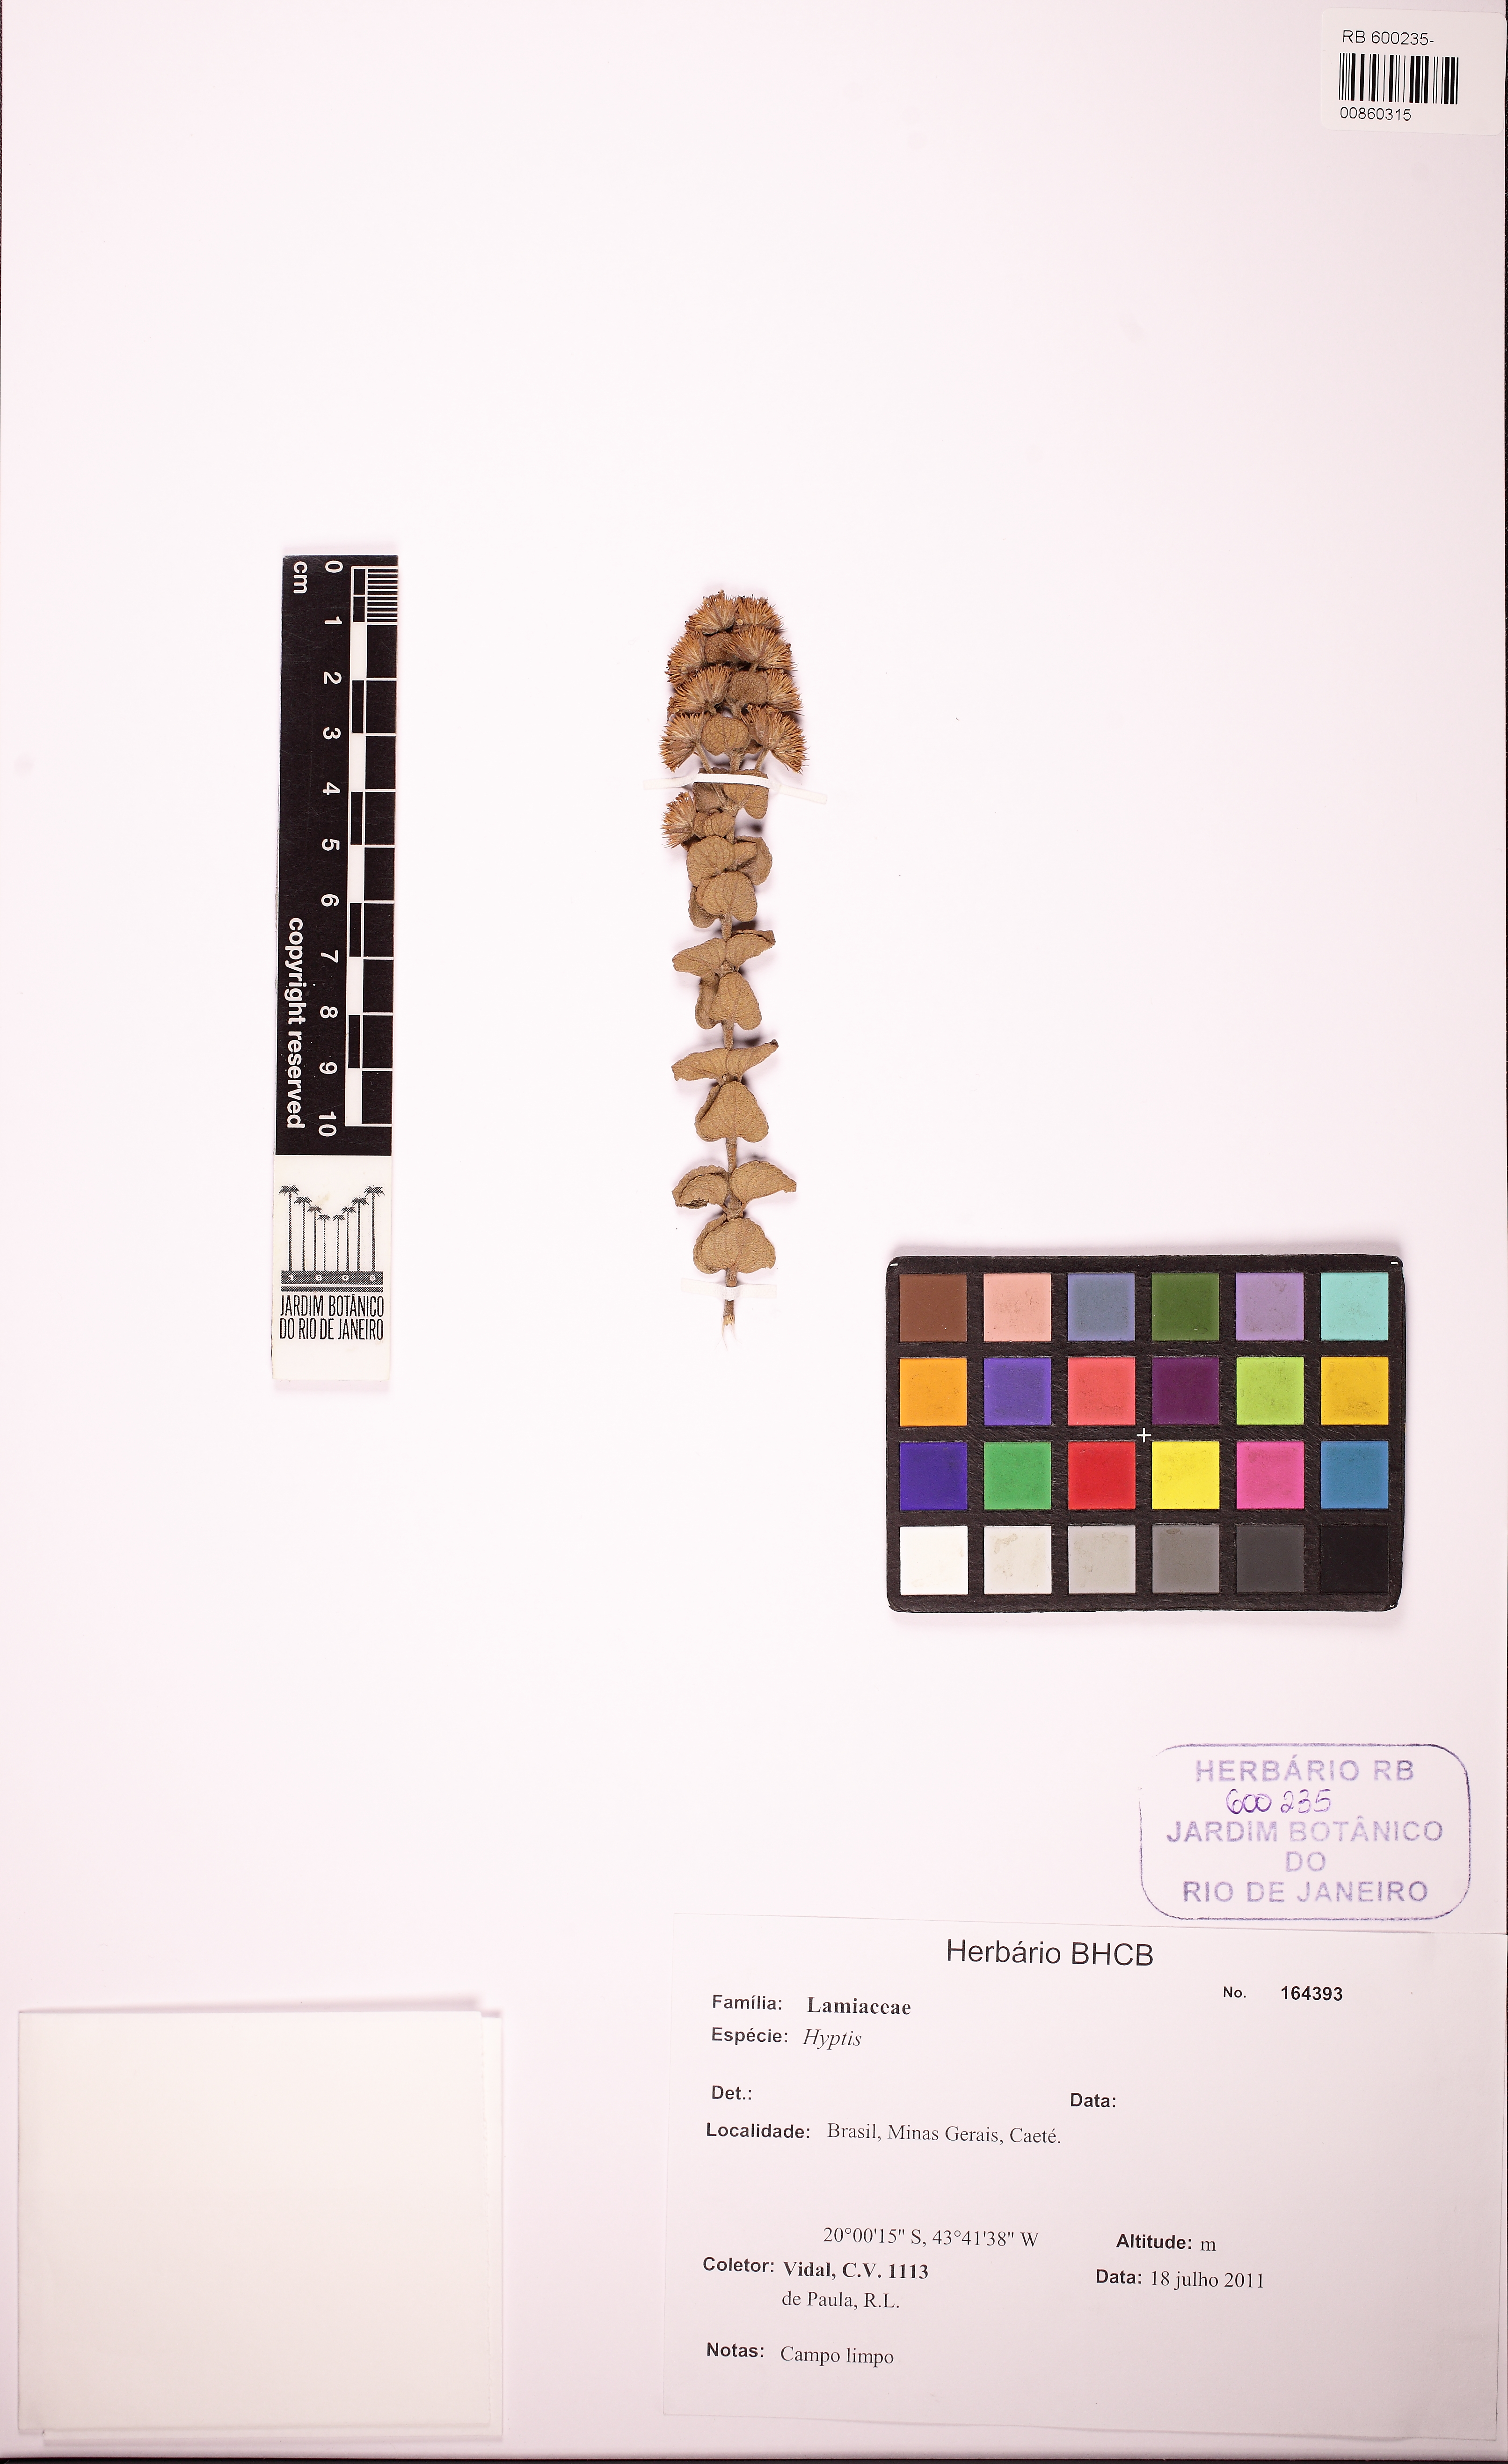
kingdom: Plantae
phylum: Tracheophyta
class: Magnoliopsida
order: Lamiales
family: Lamiaceae
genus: Hyptis
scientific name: Hyptis
